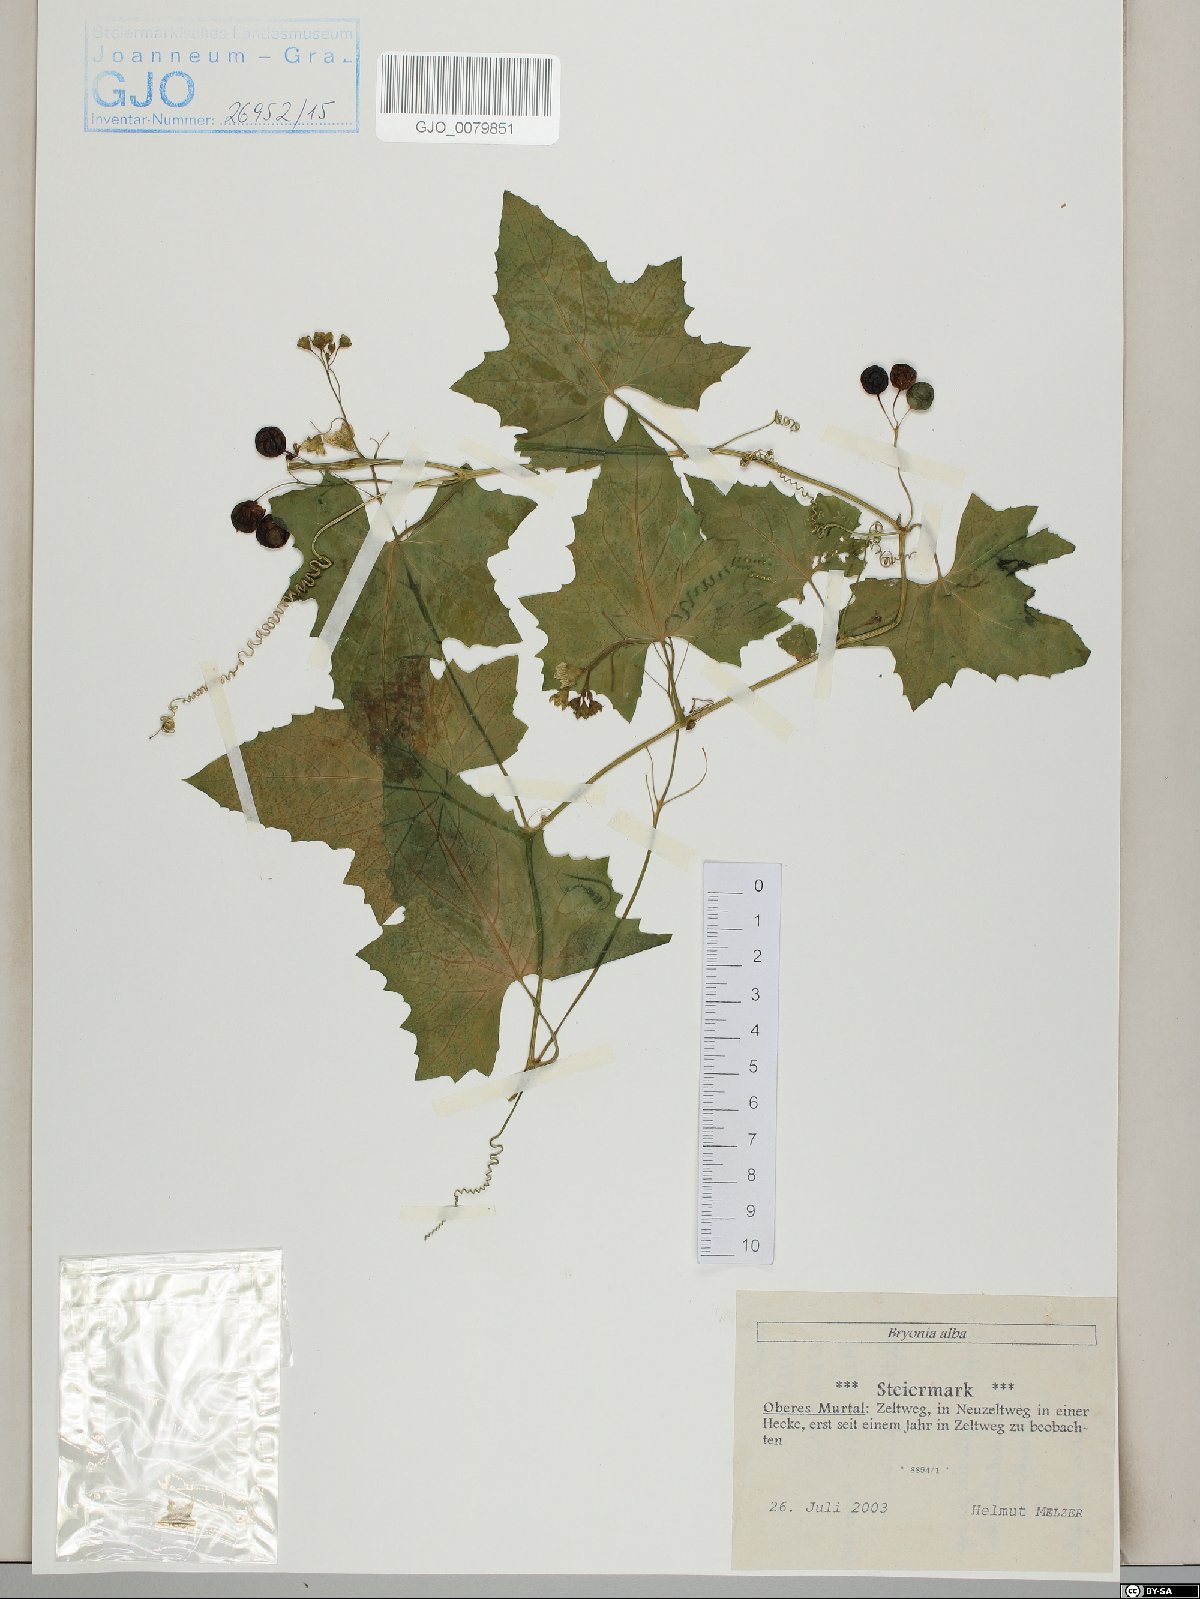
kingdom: Plantae
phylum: Tracheophyta
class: Magnoliopsida
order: Cucurbitales
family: Cucurbitaceae
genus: Bryonia
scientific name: Bryonia alba
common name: White bryony
